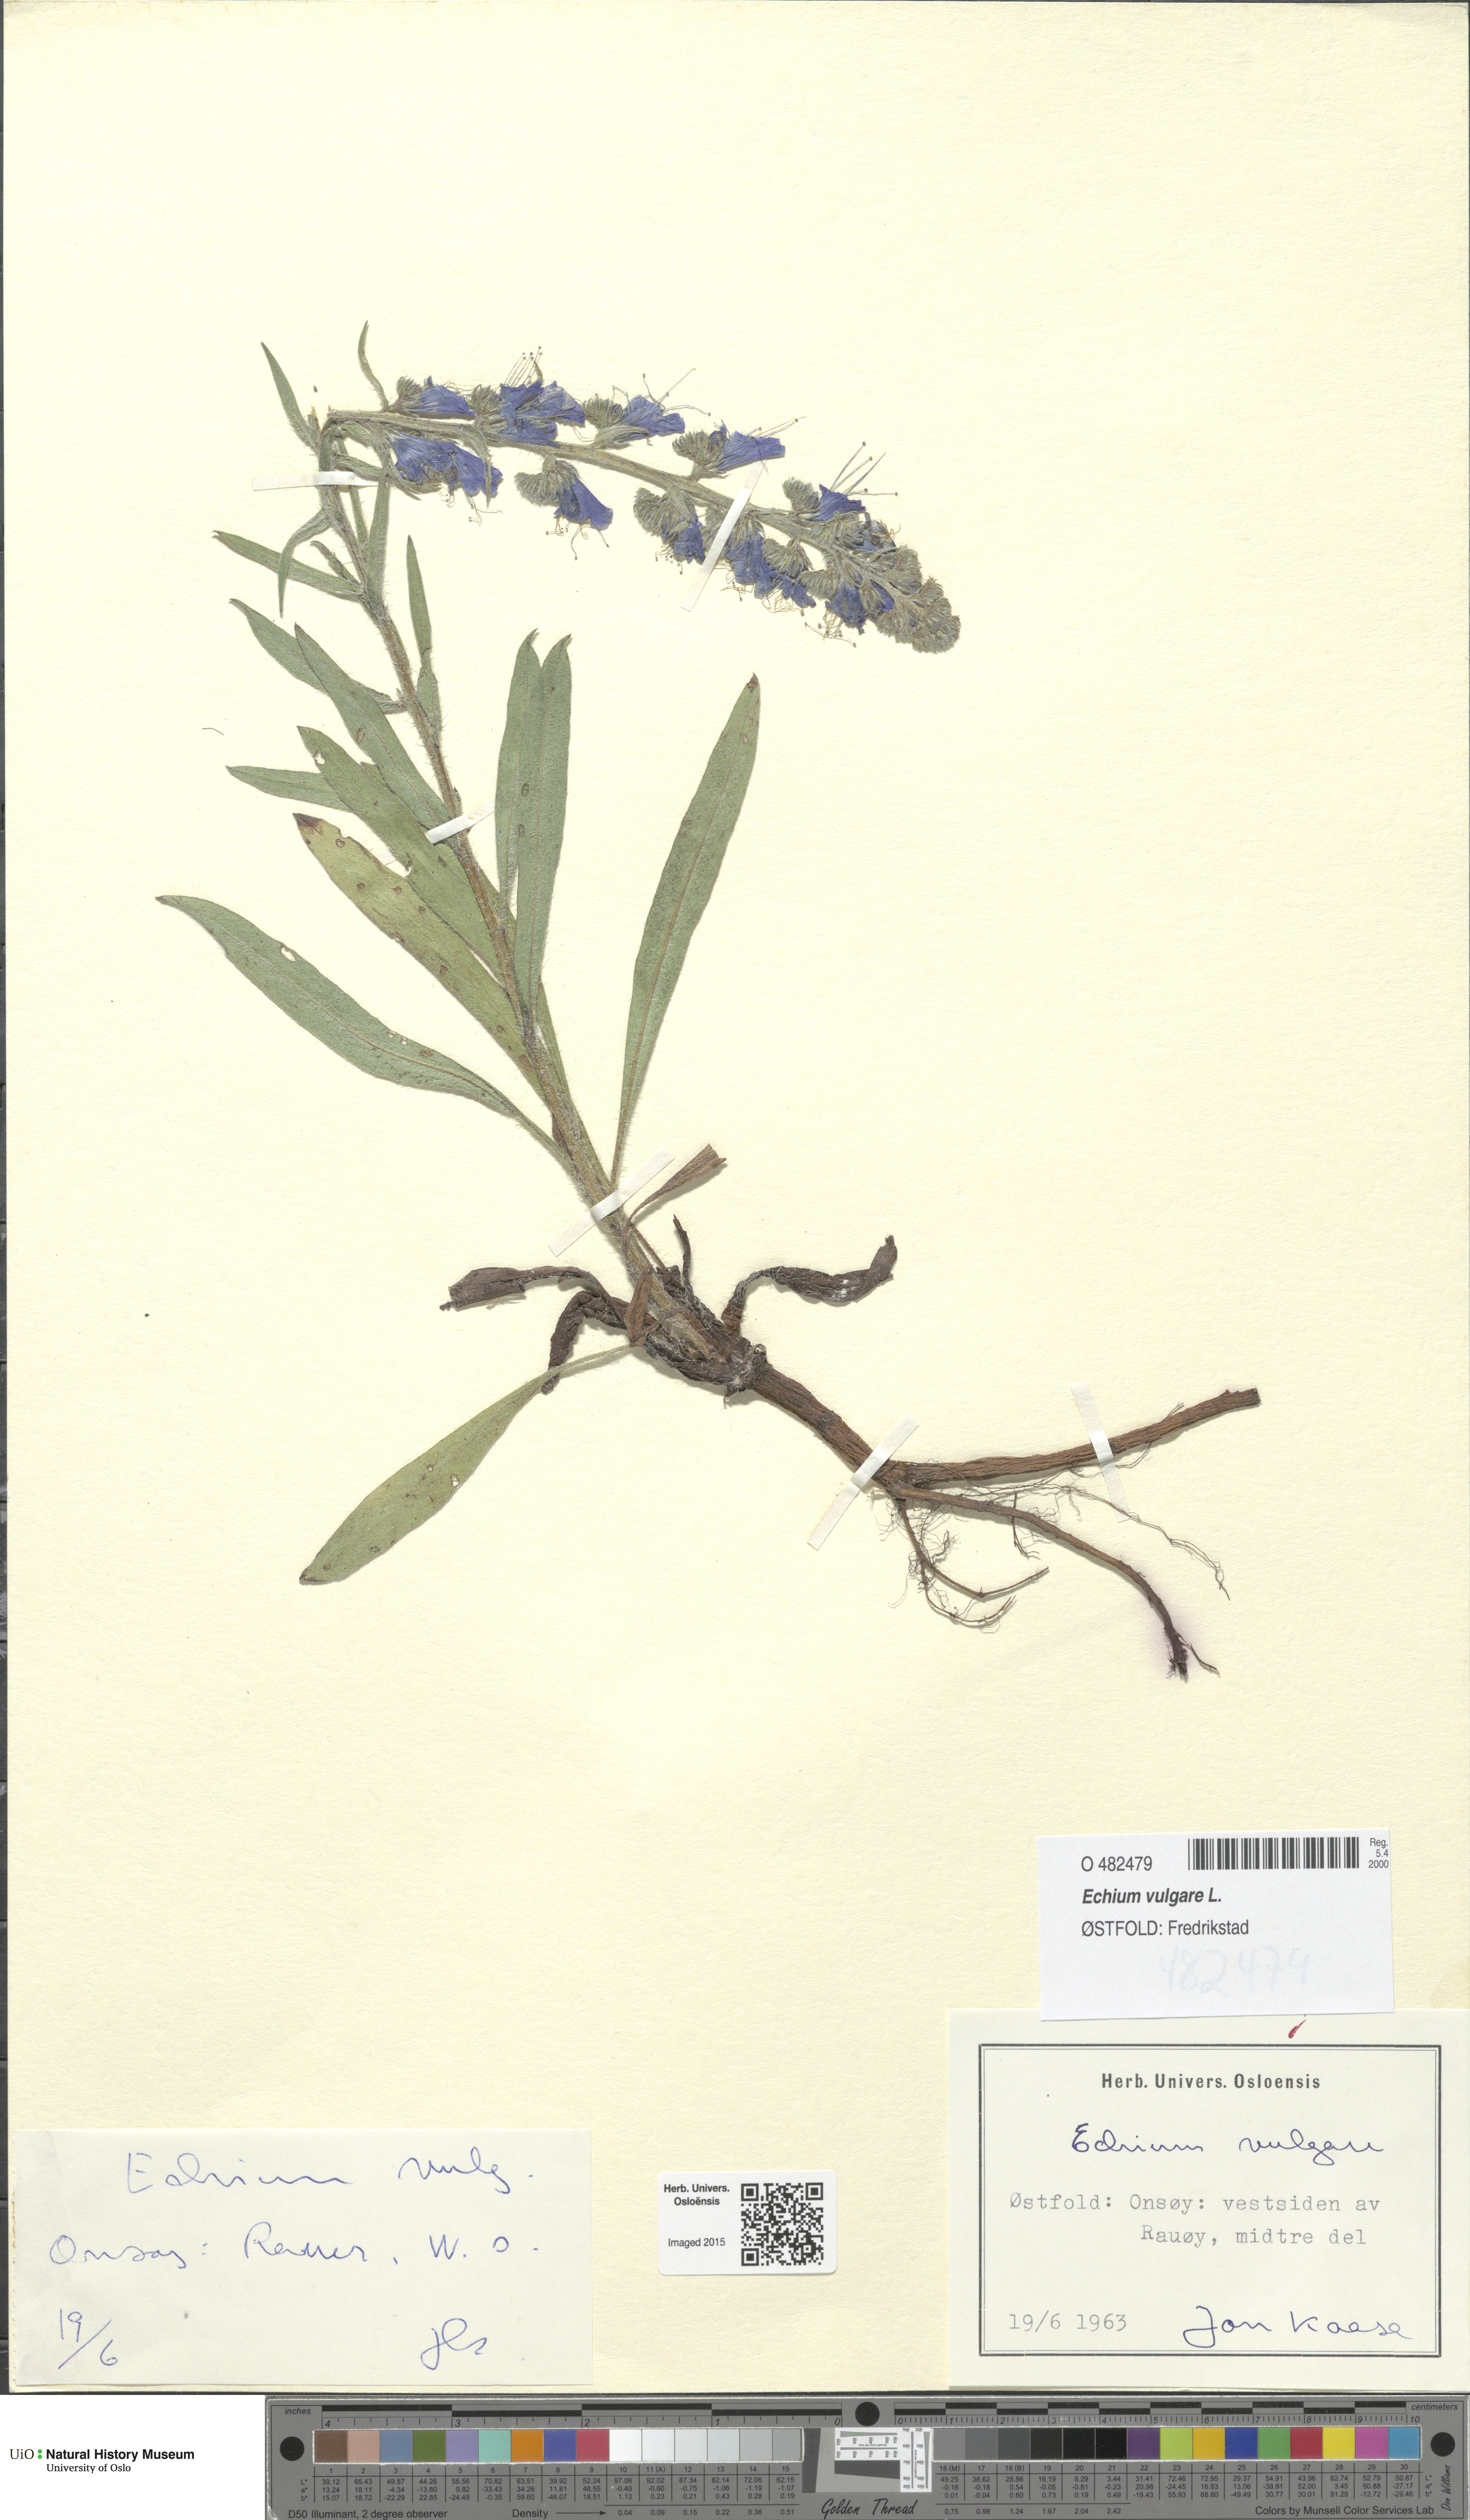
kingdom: Plantae
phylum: Tracheophyta
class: Magnoliopsida
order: Boraginales
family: Boraginaceae
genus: Echium
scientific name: Echium vulgare
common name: Common viper's bugloss
